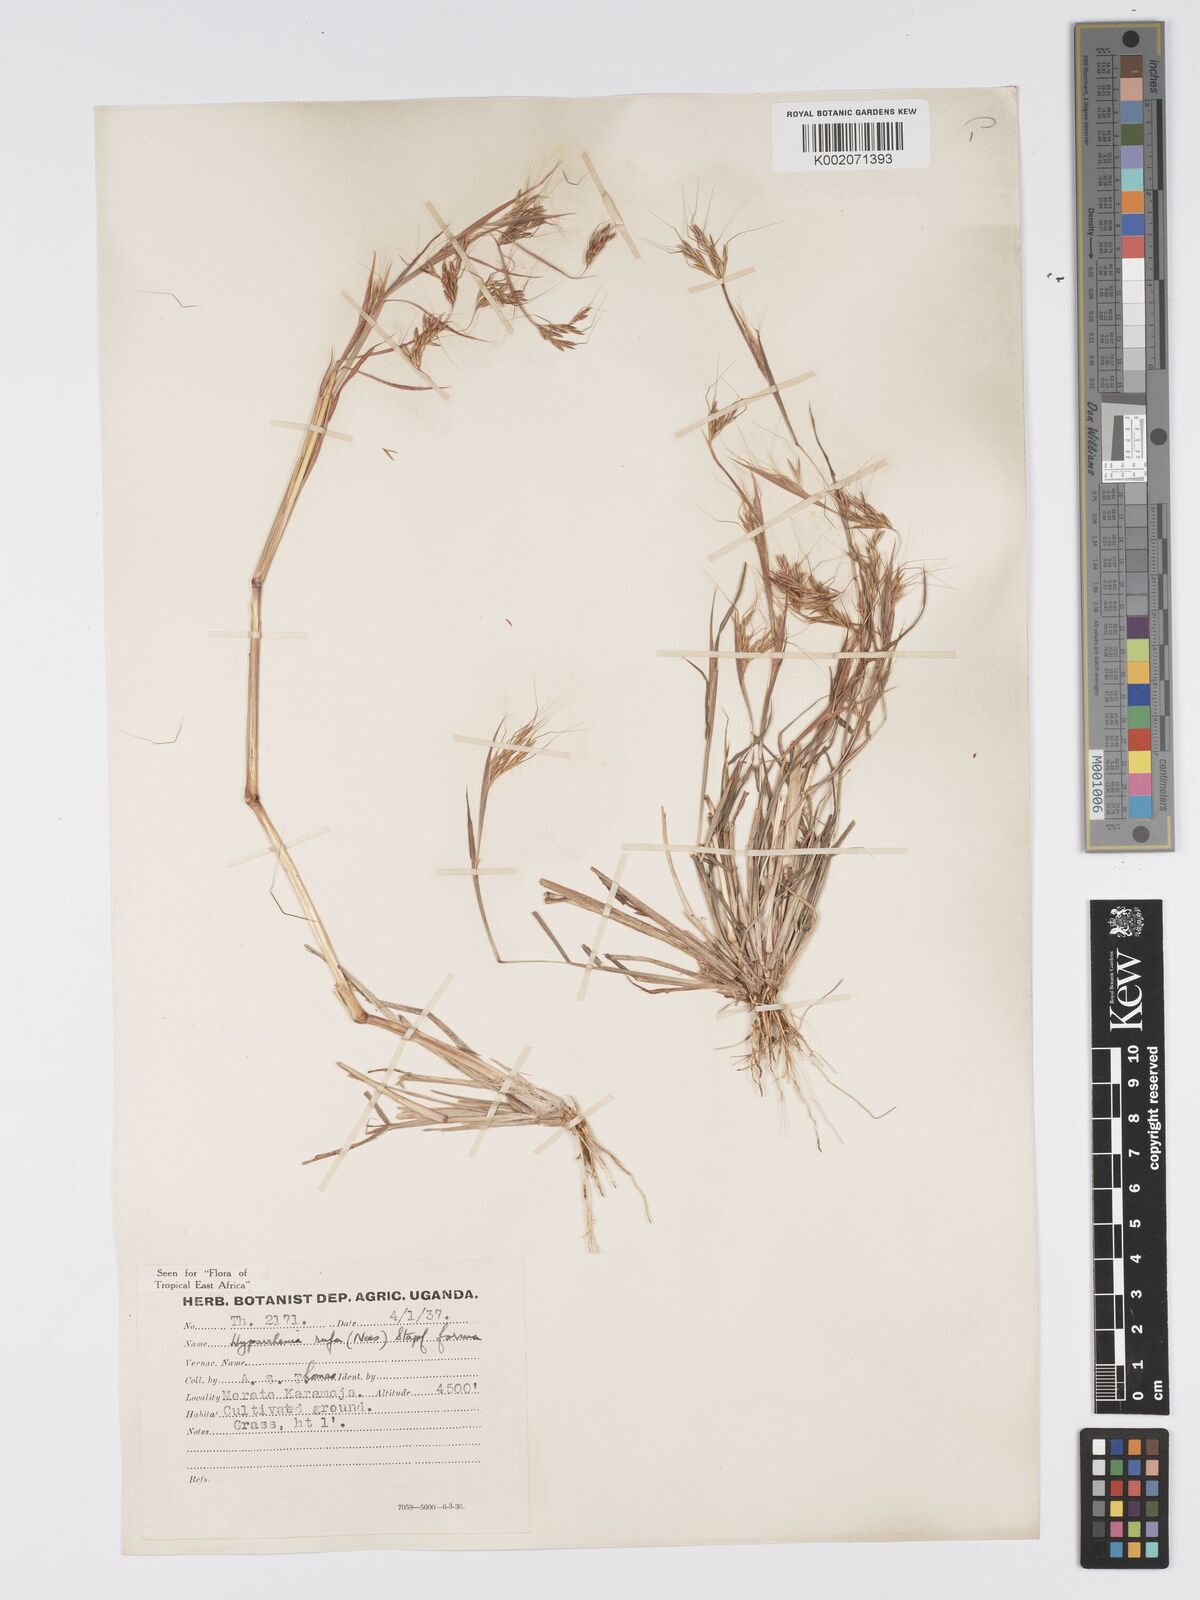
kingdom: Plantae
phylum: Tracheophyta
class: Liliopsida
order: Poales
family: Poaceae
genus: Hyparrhenia
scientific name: Hyparrhenia rufa
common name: Jaraguagrass
